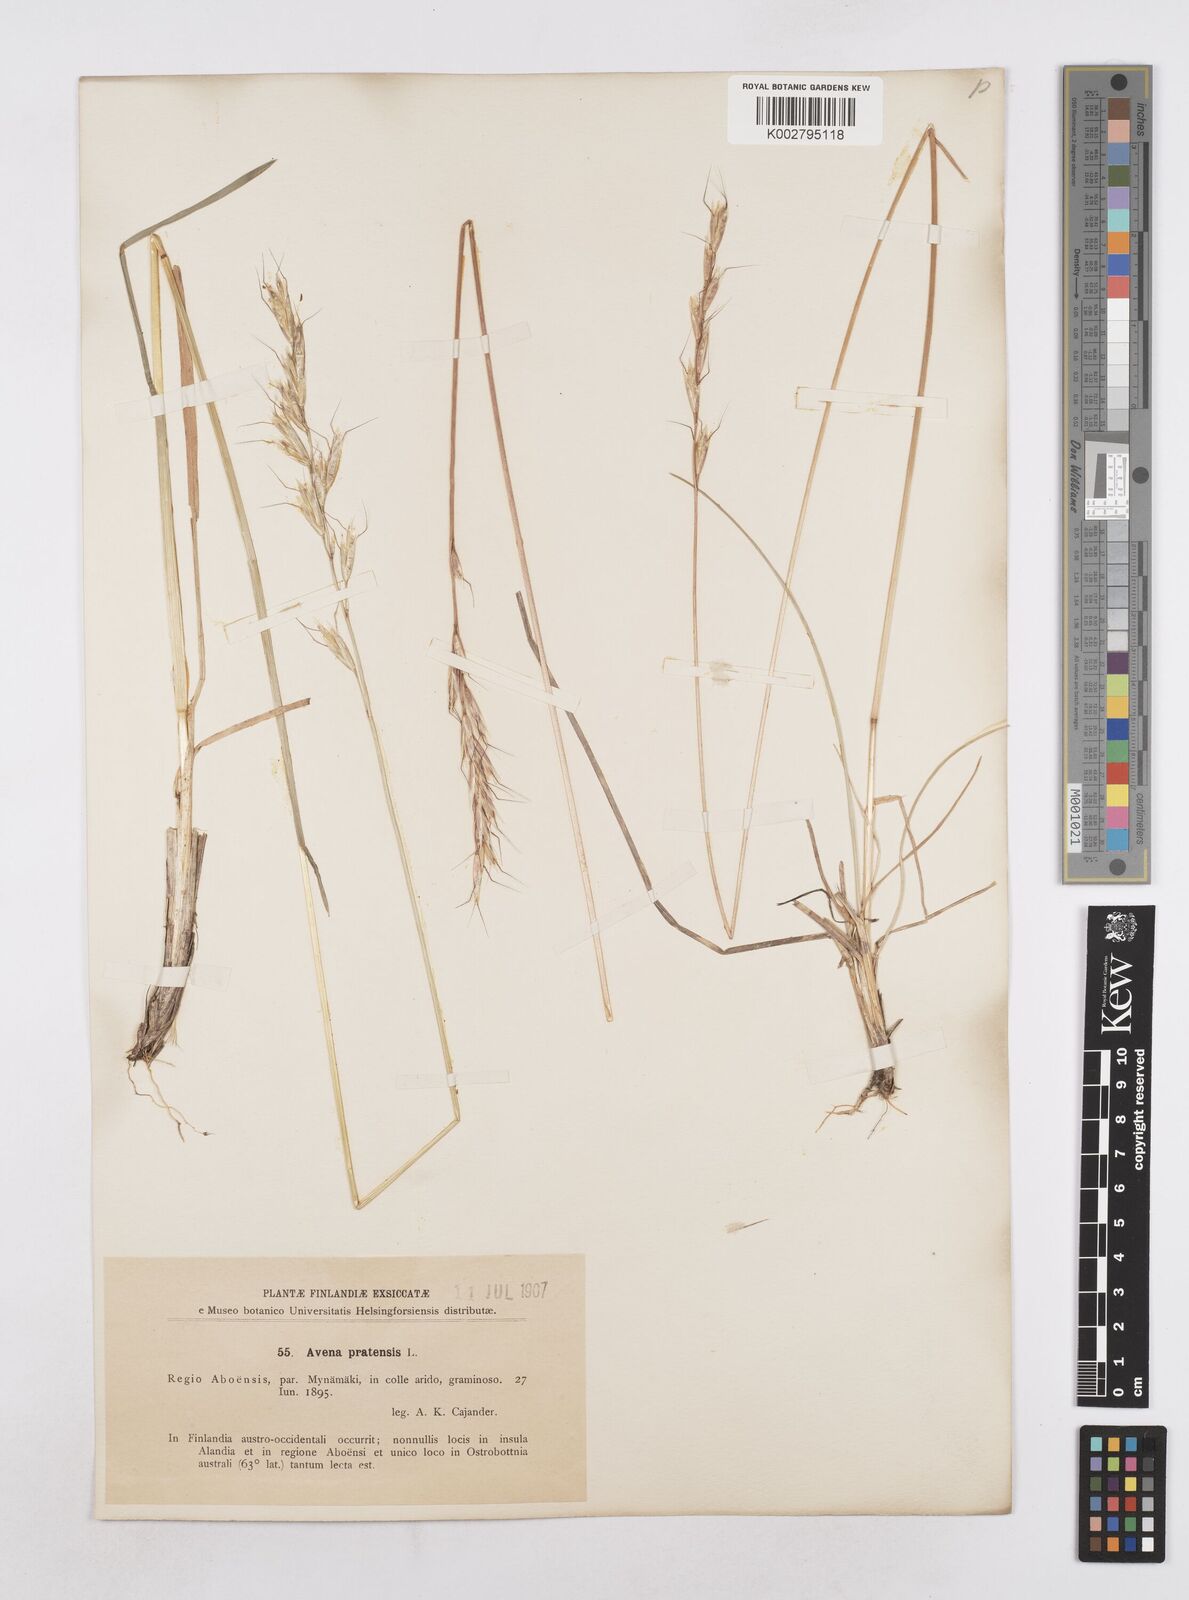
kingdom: Plantae
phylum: Tracheophyta
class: Liliopsida
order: Poales
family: Poaceae
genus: Helictochloa
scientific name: Helictochloa pratensis
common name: Meadow oat grass
